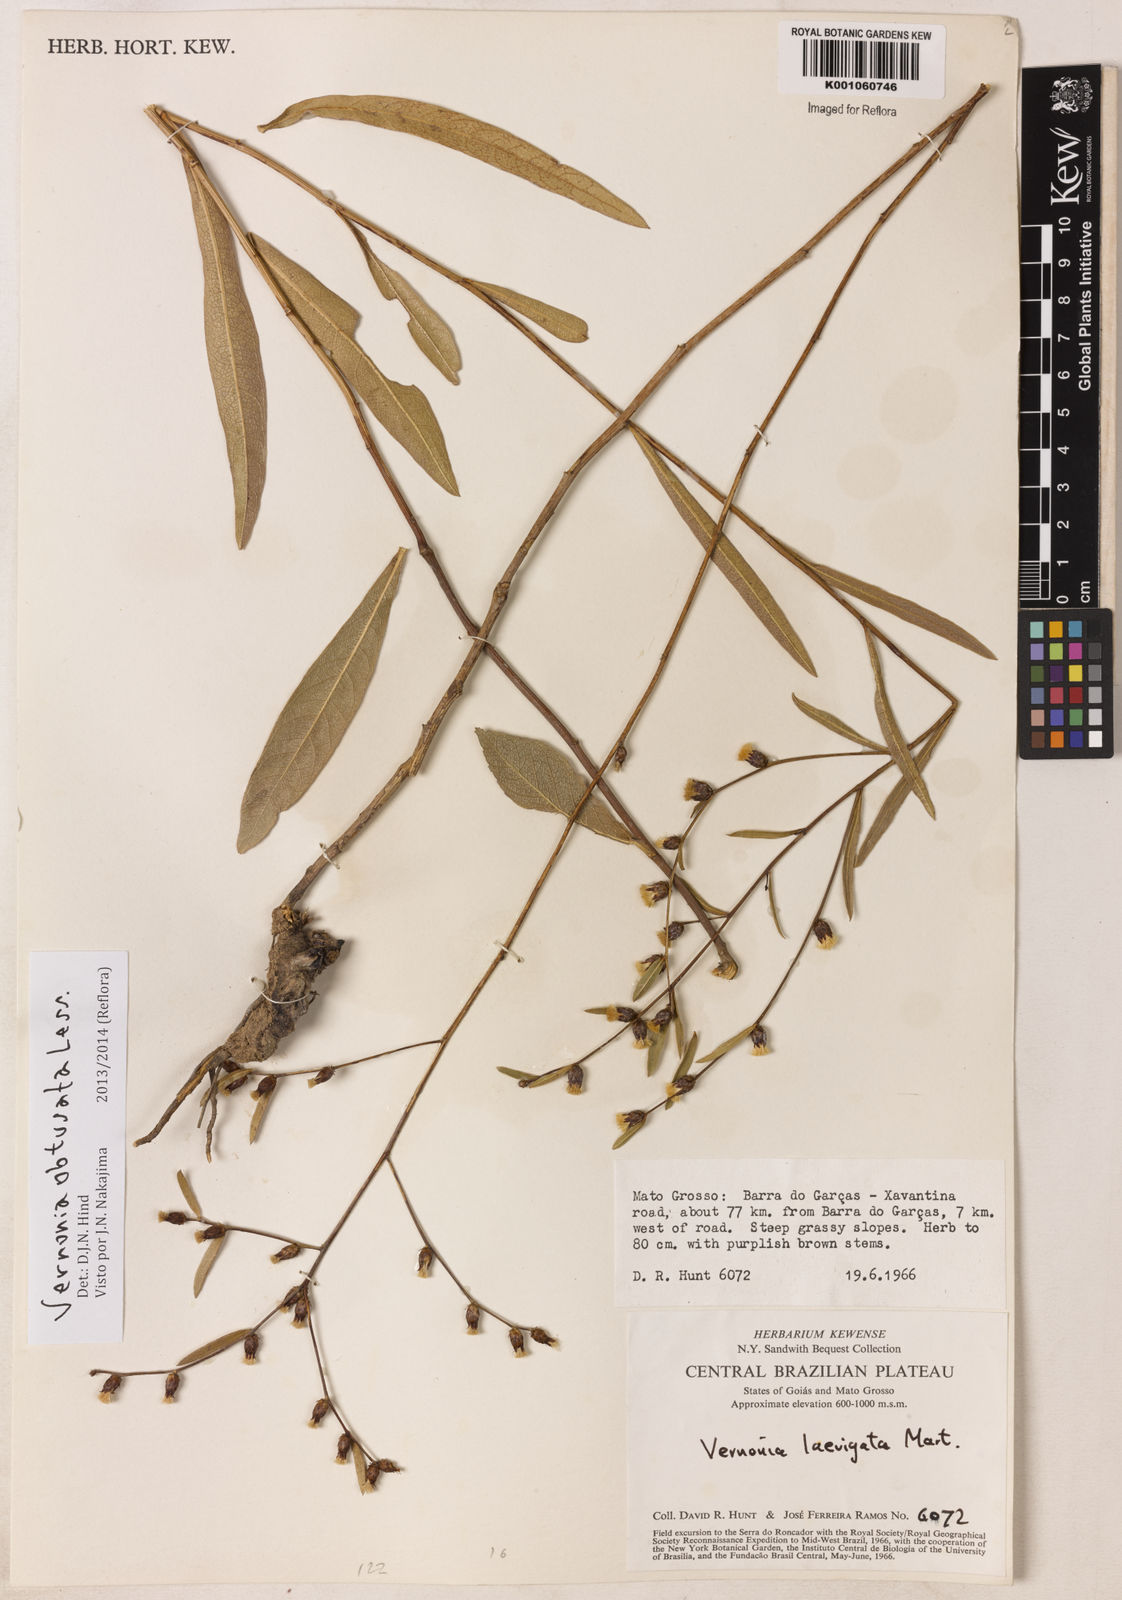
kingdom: Plantae
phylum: Tracheophyta
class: Magnoliopsida
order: Asterales
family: Asteraceae
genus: Lessingianthus
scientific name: Lessingianthus obtusatus
